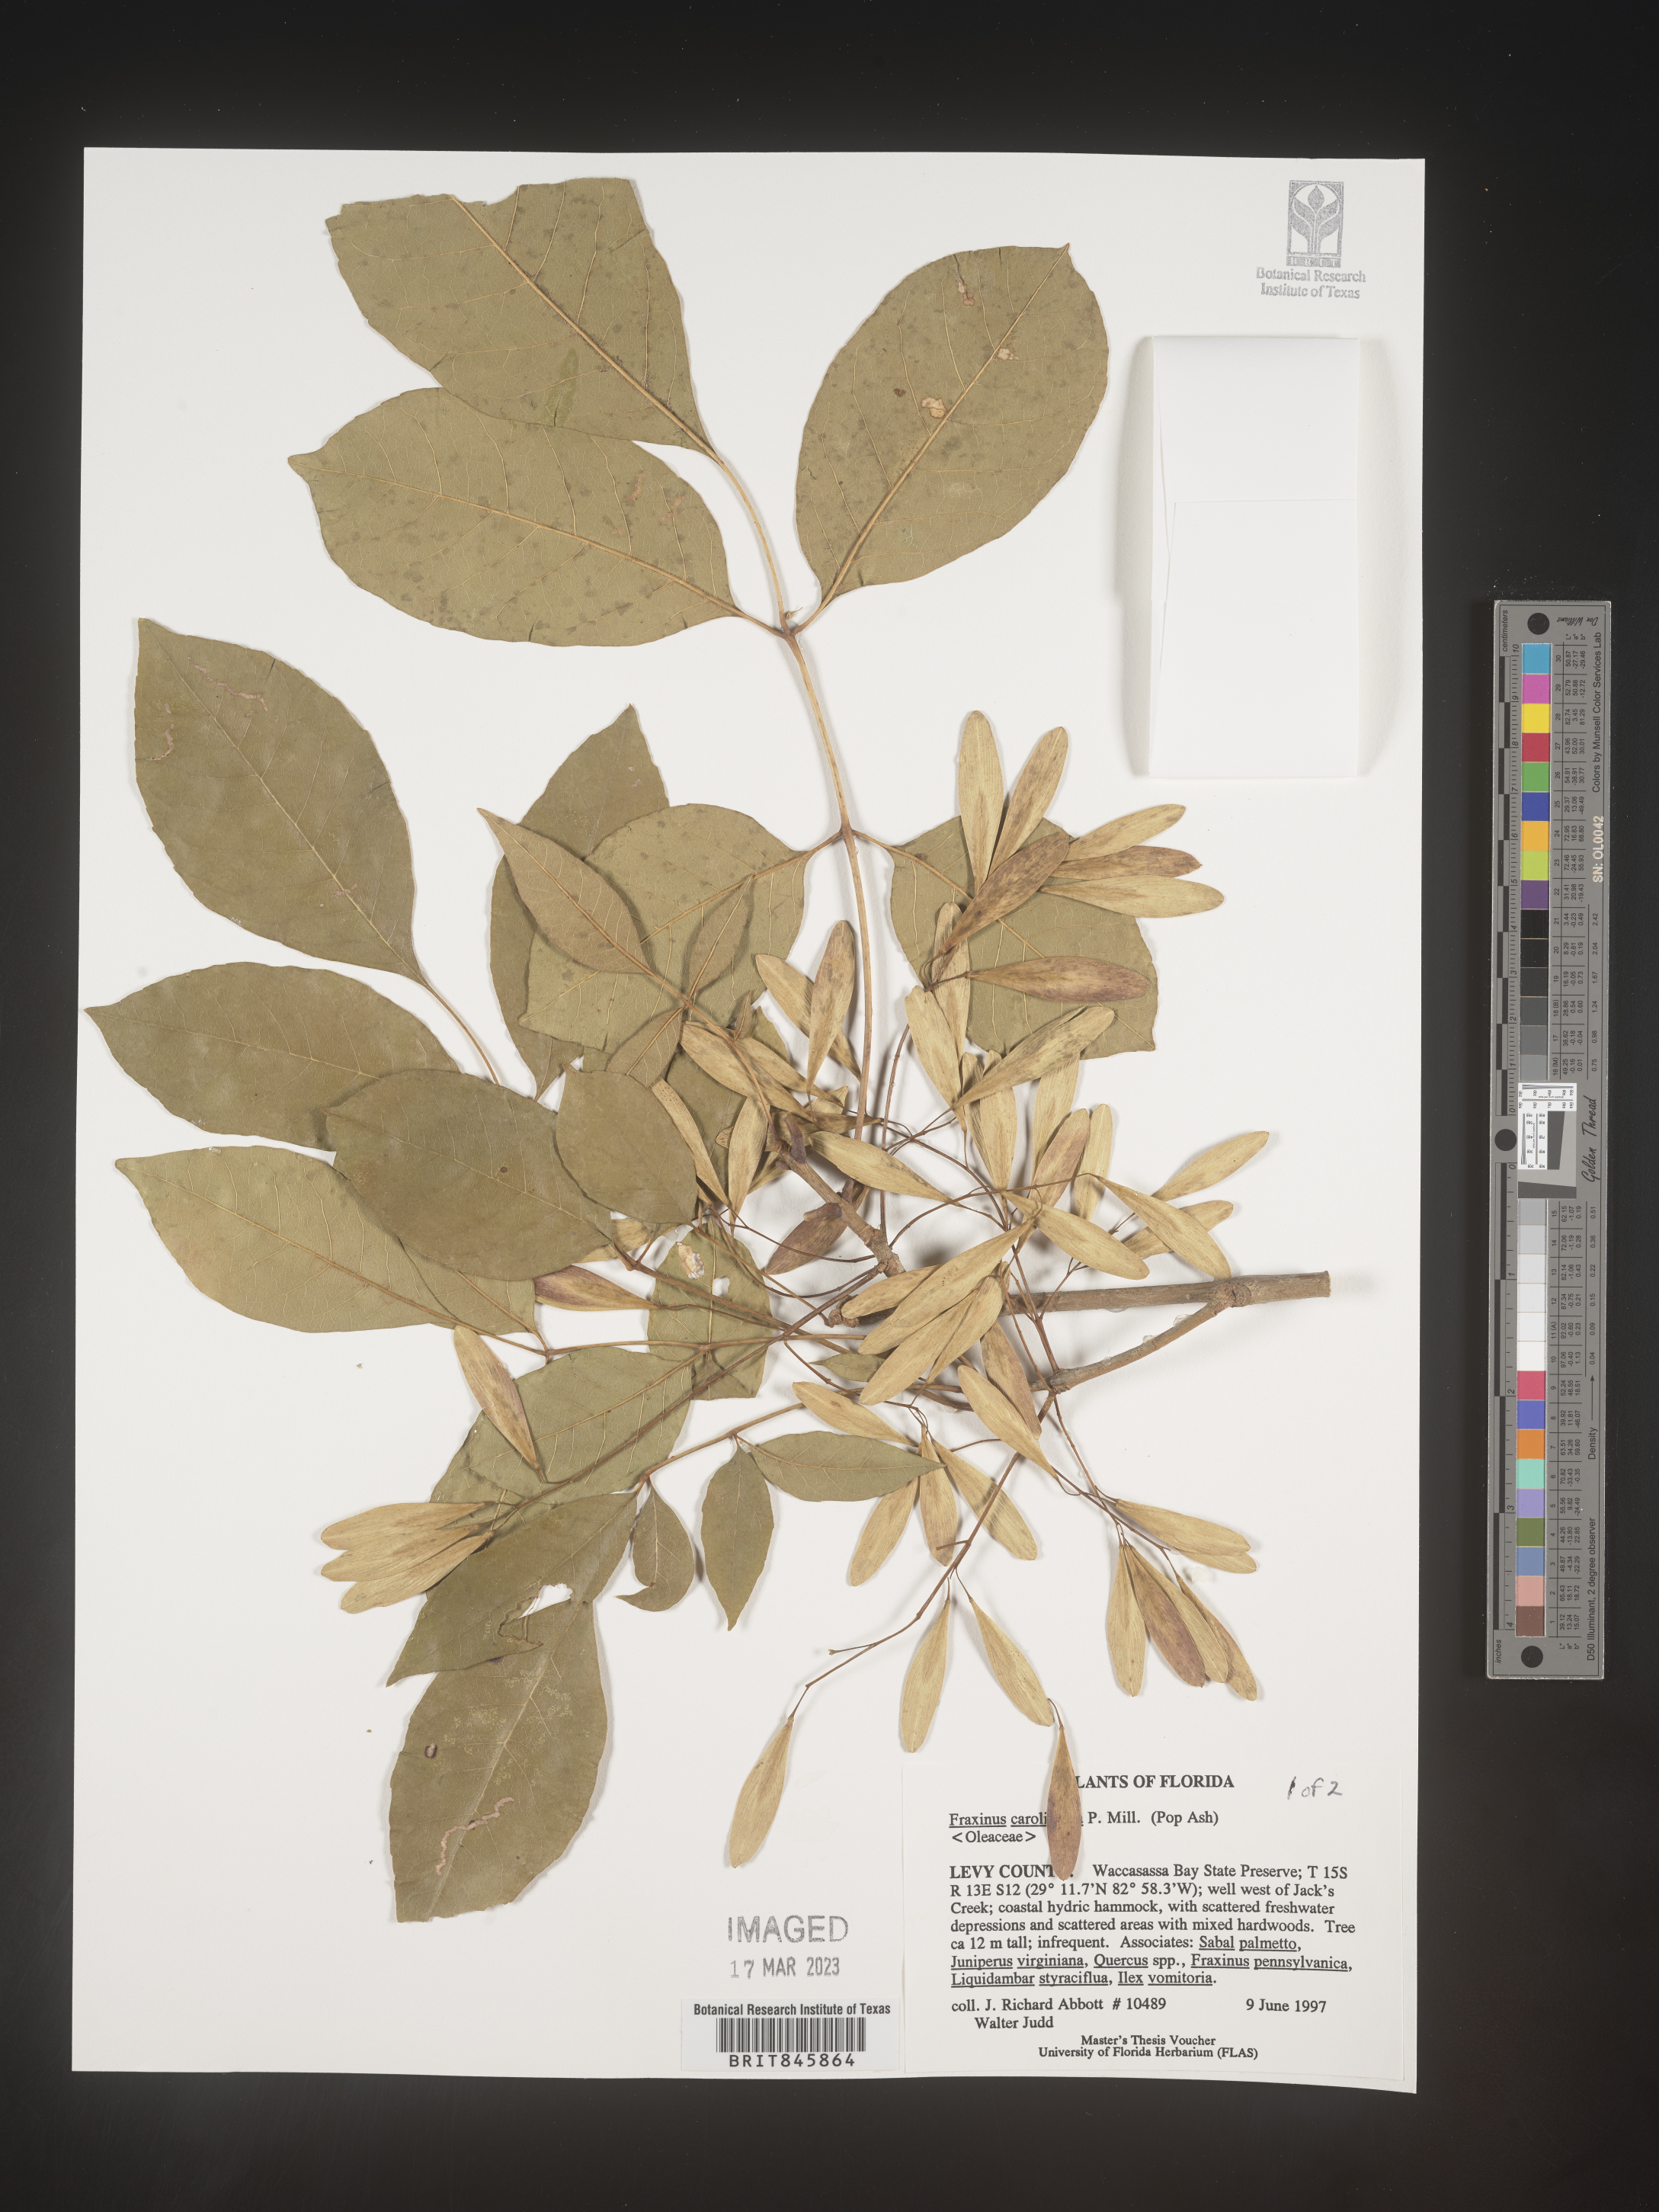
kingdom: Plantae
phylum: Tracheophyta
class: Magnoliopsida
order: Lamiales
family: Oleaceae
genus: Fraxinus
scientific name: Fraxinus caroliniana
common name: Carolina ash
